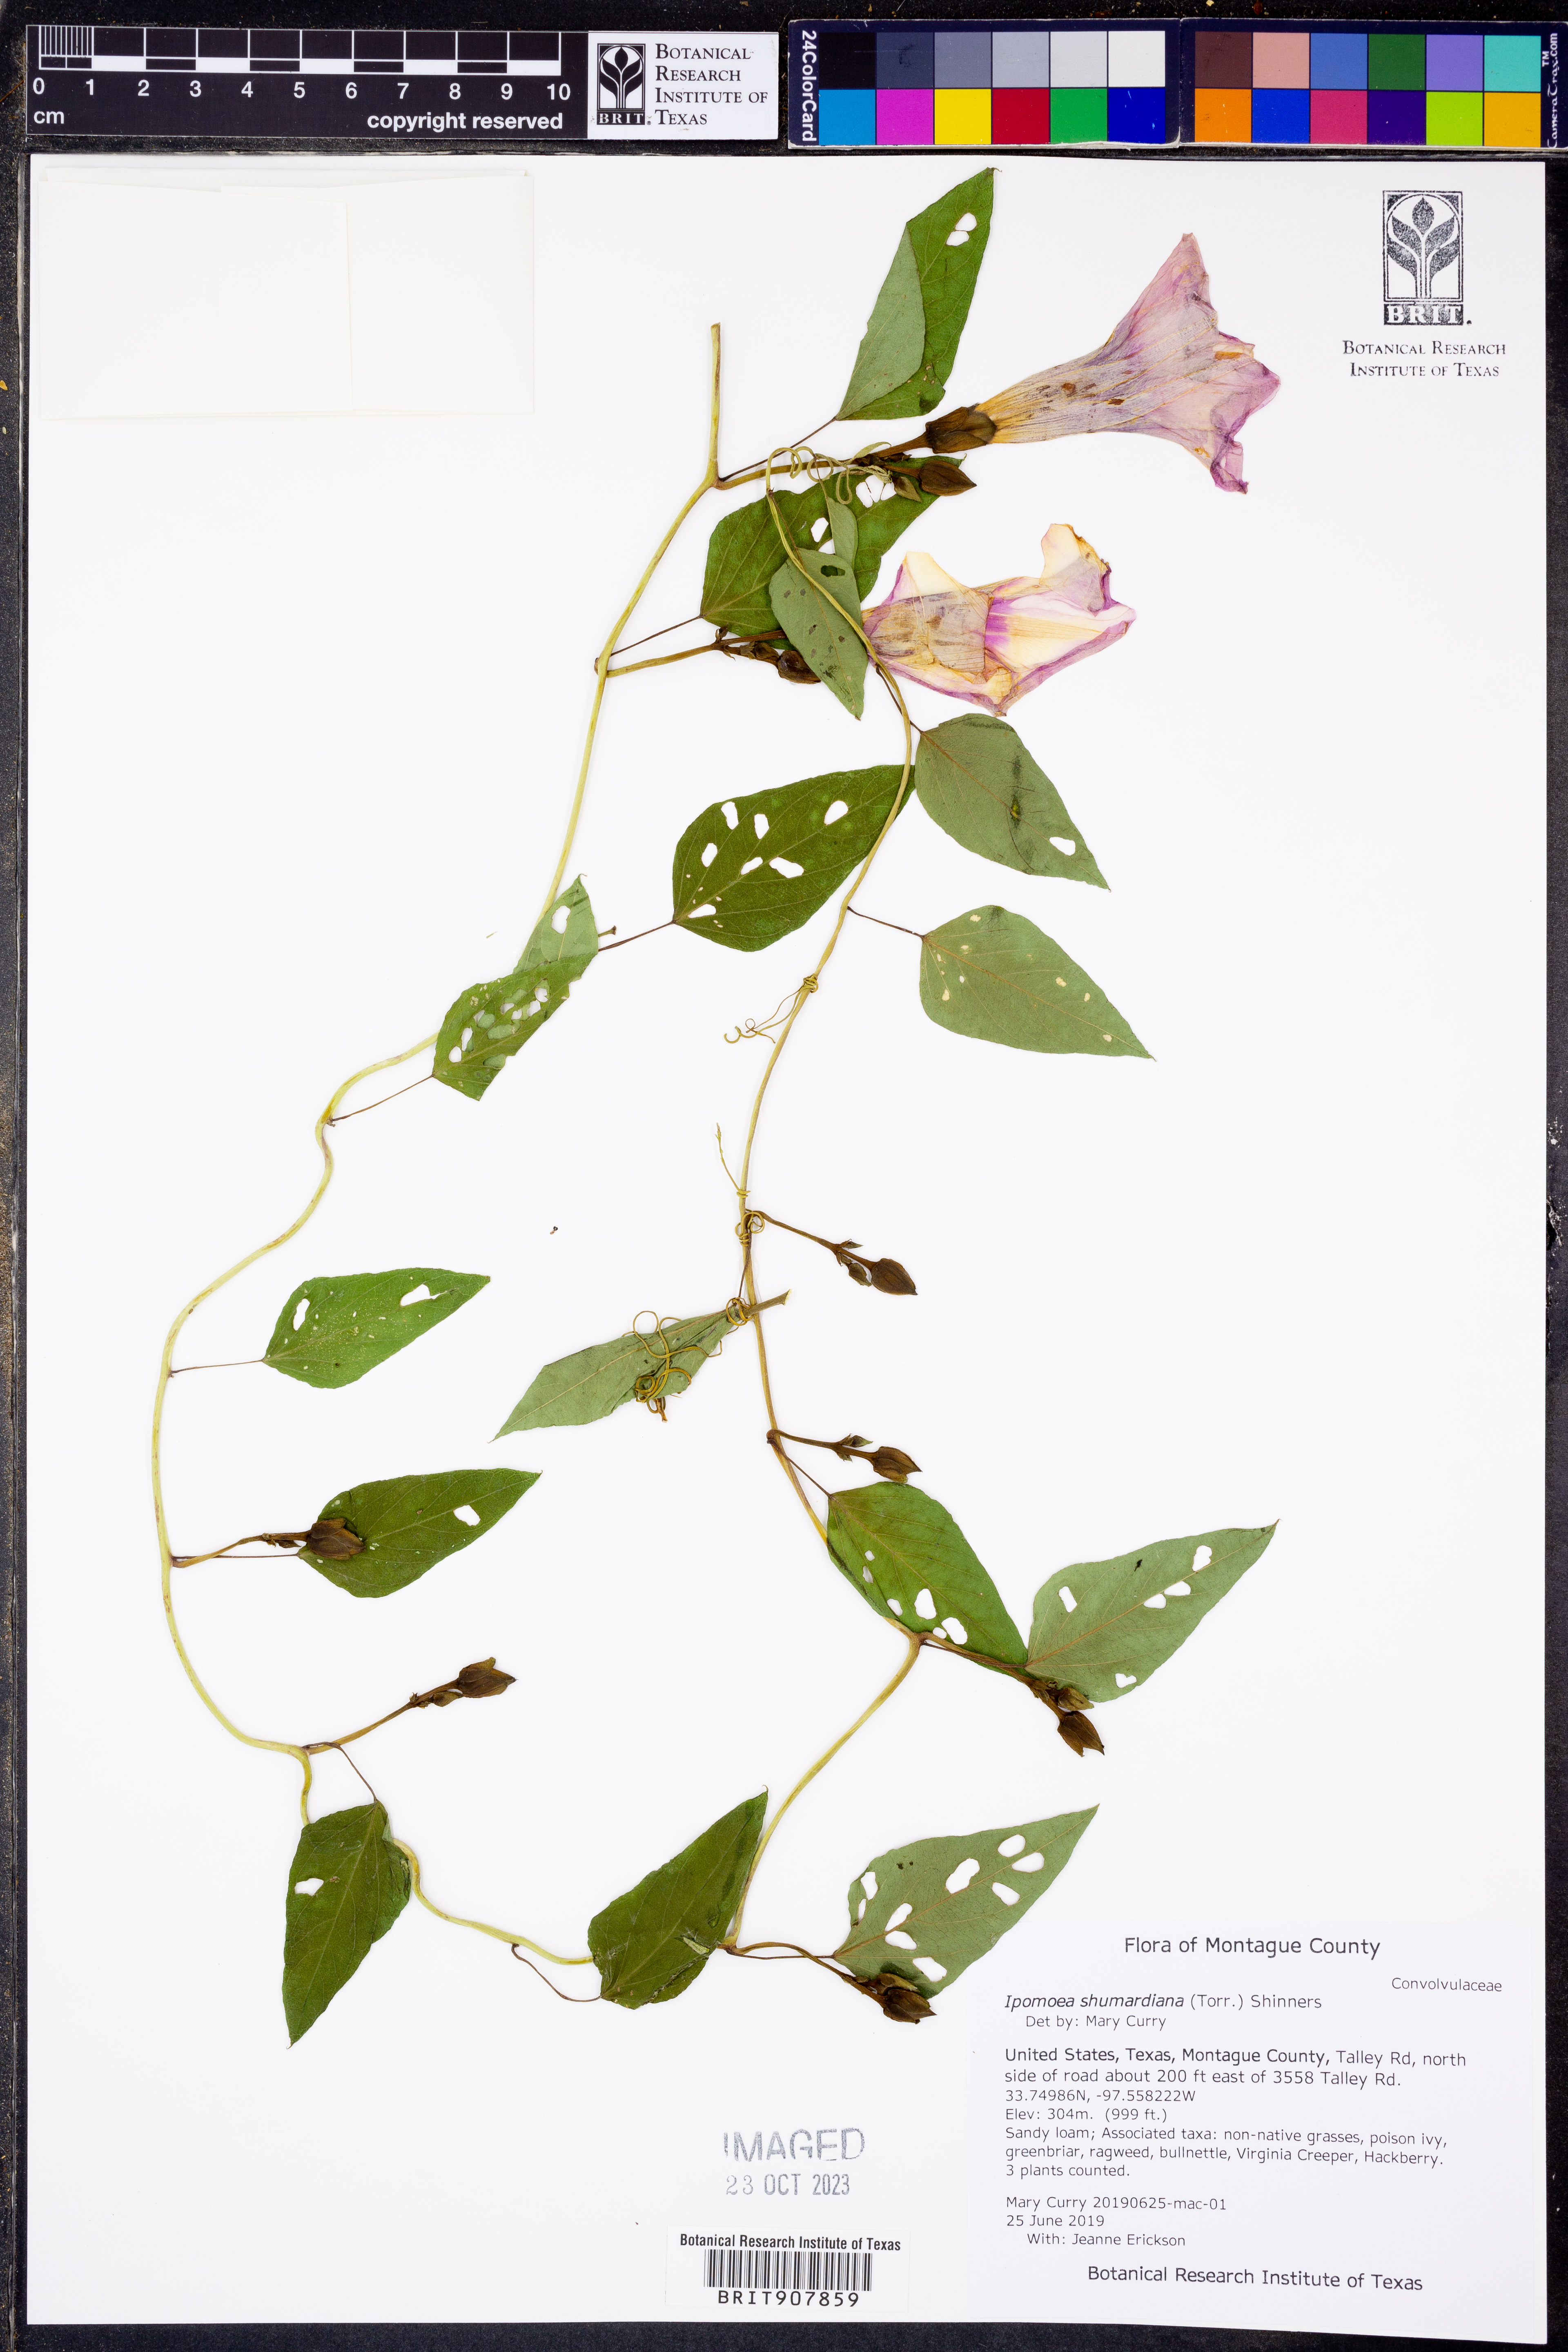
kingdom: Plantae
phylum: Tracheophyta
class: Magnoliopsida
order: Solanales
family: Convolvulaceae
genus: Ipomoea
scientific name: Ipomoea shumardiana
